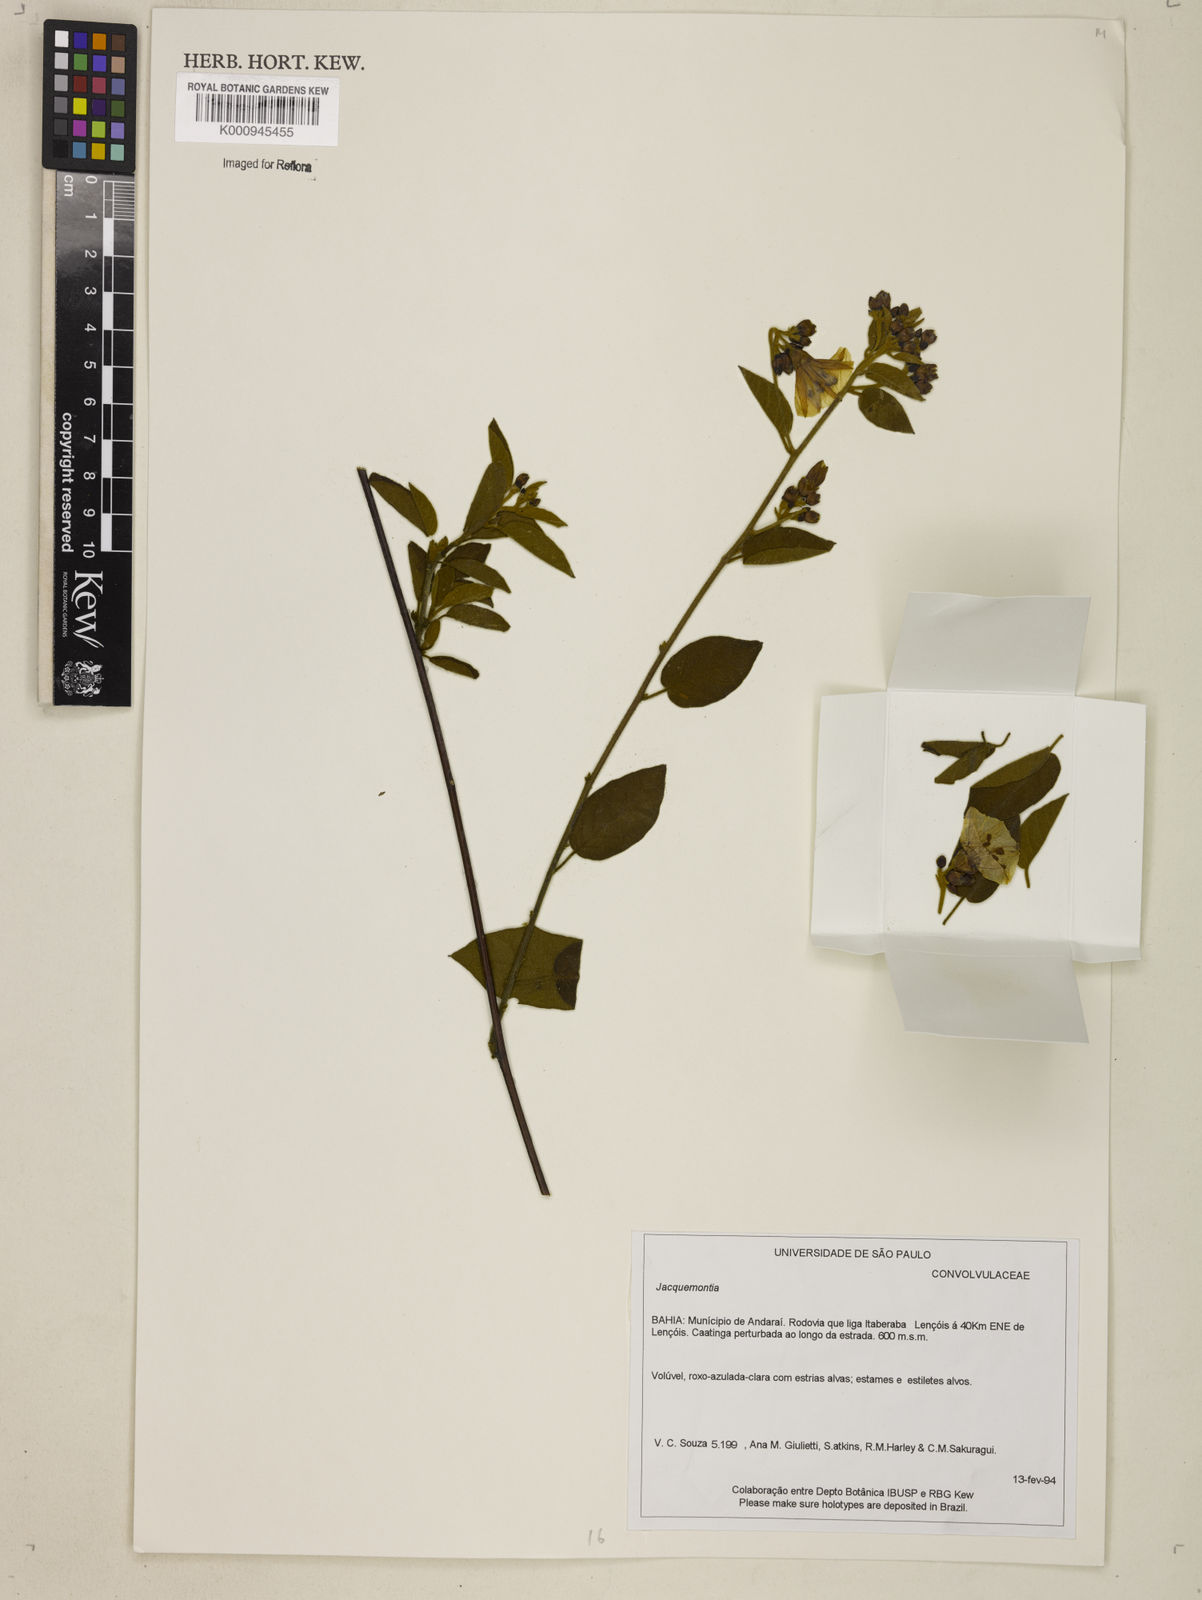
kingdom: Plantae
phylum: Tracheophyta
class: Magnoliopsida
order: Solanales
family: Convolvulaceae
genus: Jacquemontia
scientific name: Jacquemontia
